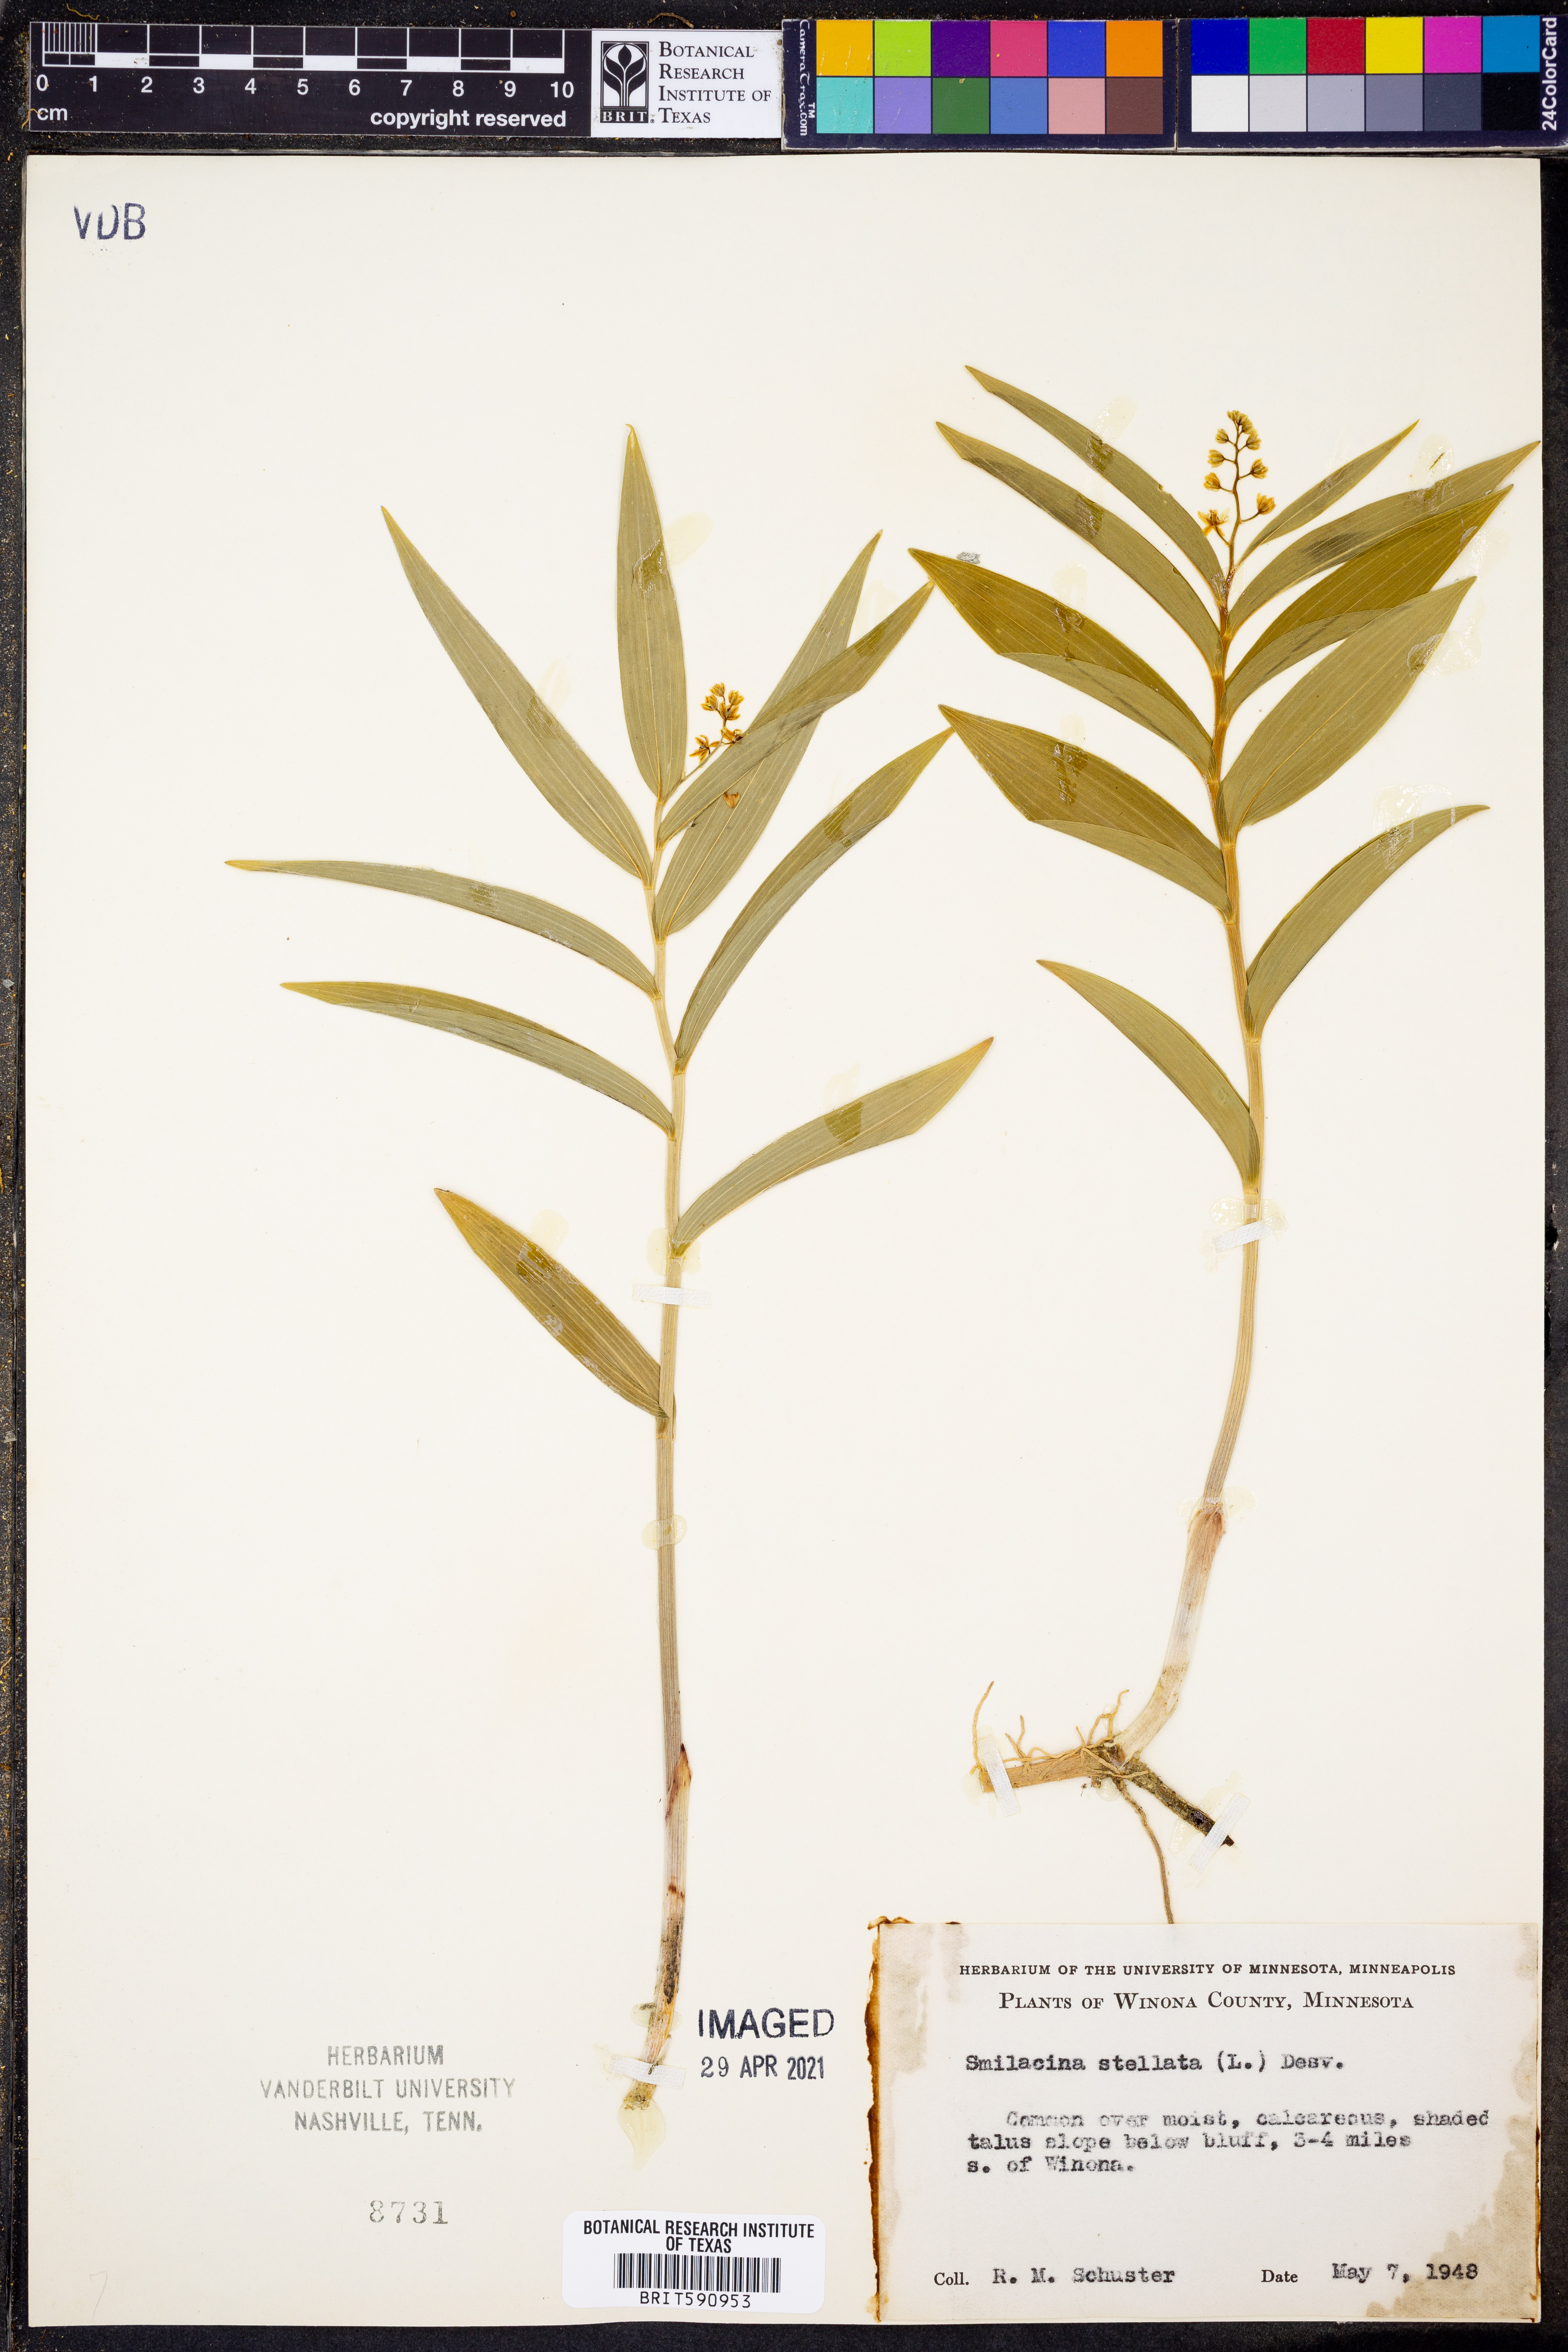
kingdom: Plantae
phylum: Tracheophyta
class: Liliopsida
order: Asparagales
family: Asparagaceae
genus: Maianthemum
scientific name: Maianthemum stellatum
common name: Little false solomon's seal
